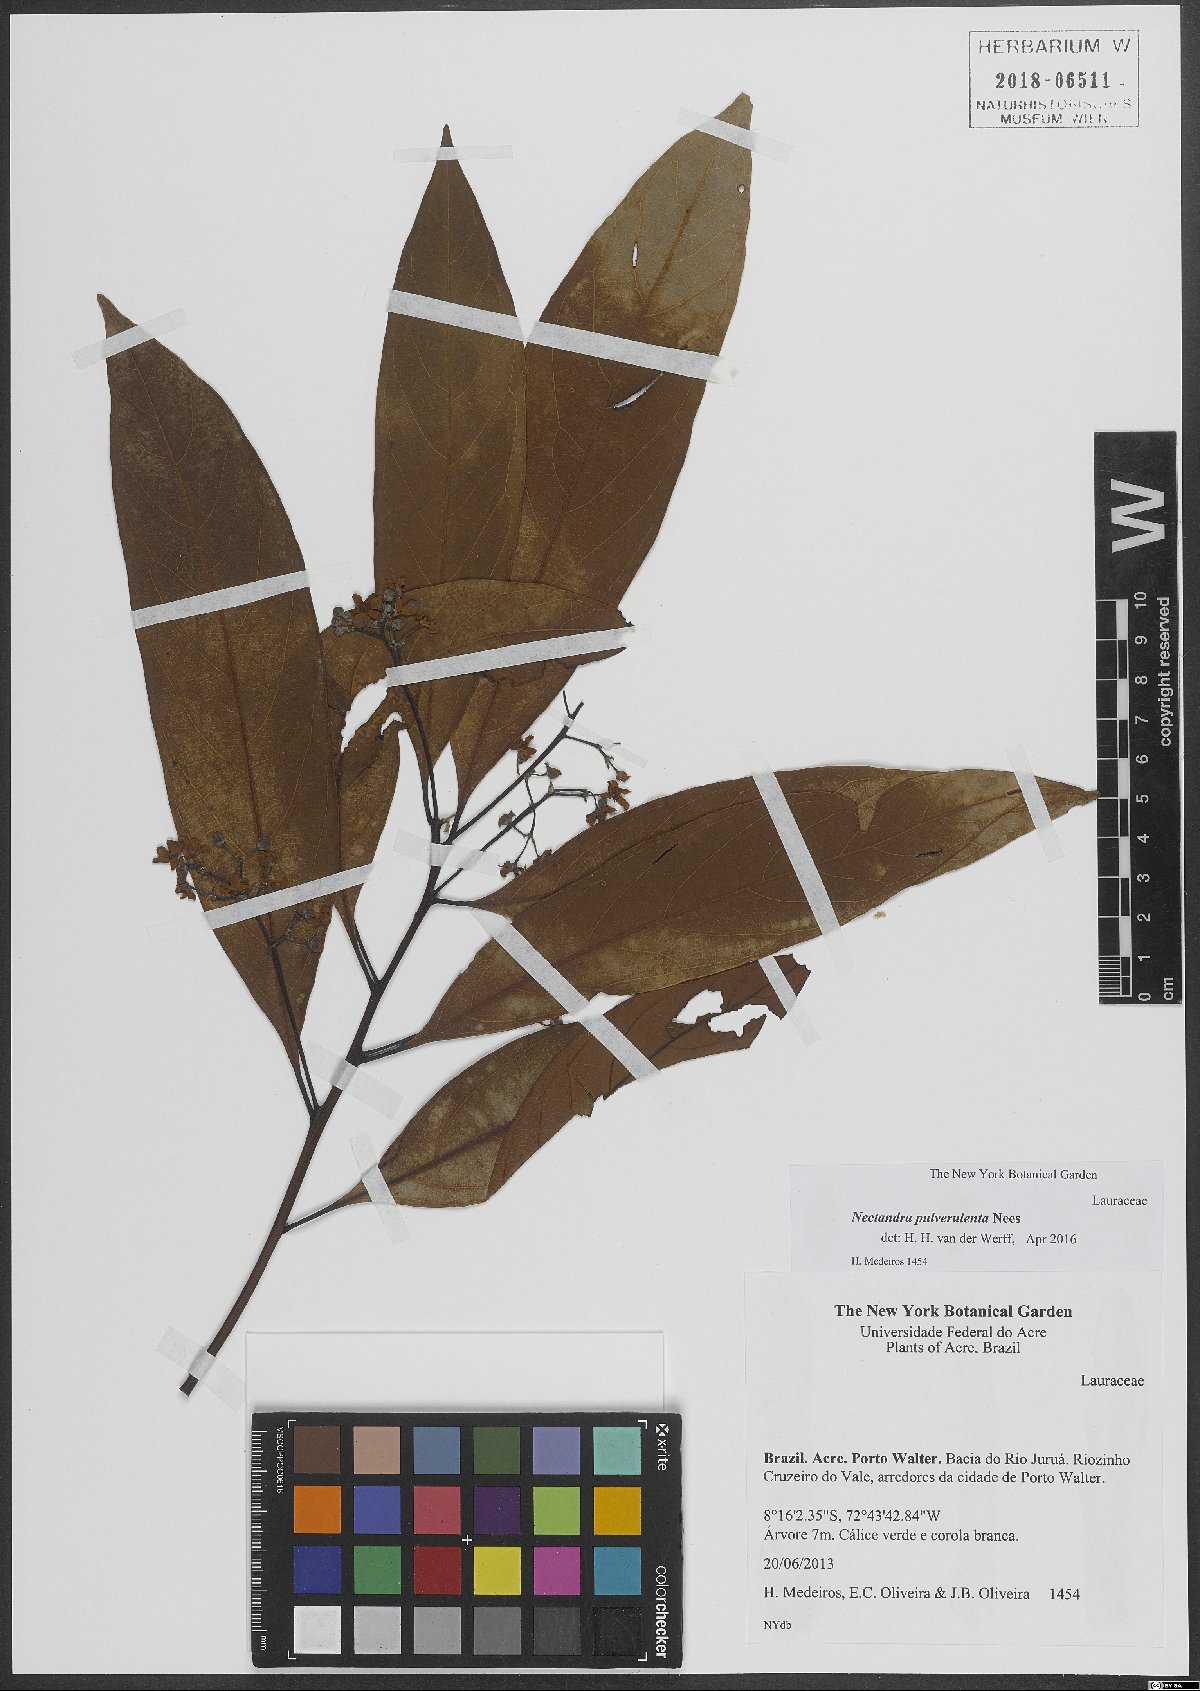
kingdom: Plantae
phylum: Tracheophyta
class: Magnoliopsida
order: Laurales
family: Lauraceae
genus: Nectandra
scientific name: Nectandra pulverulenta
